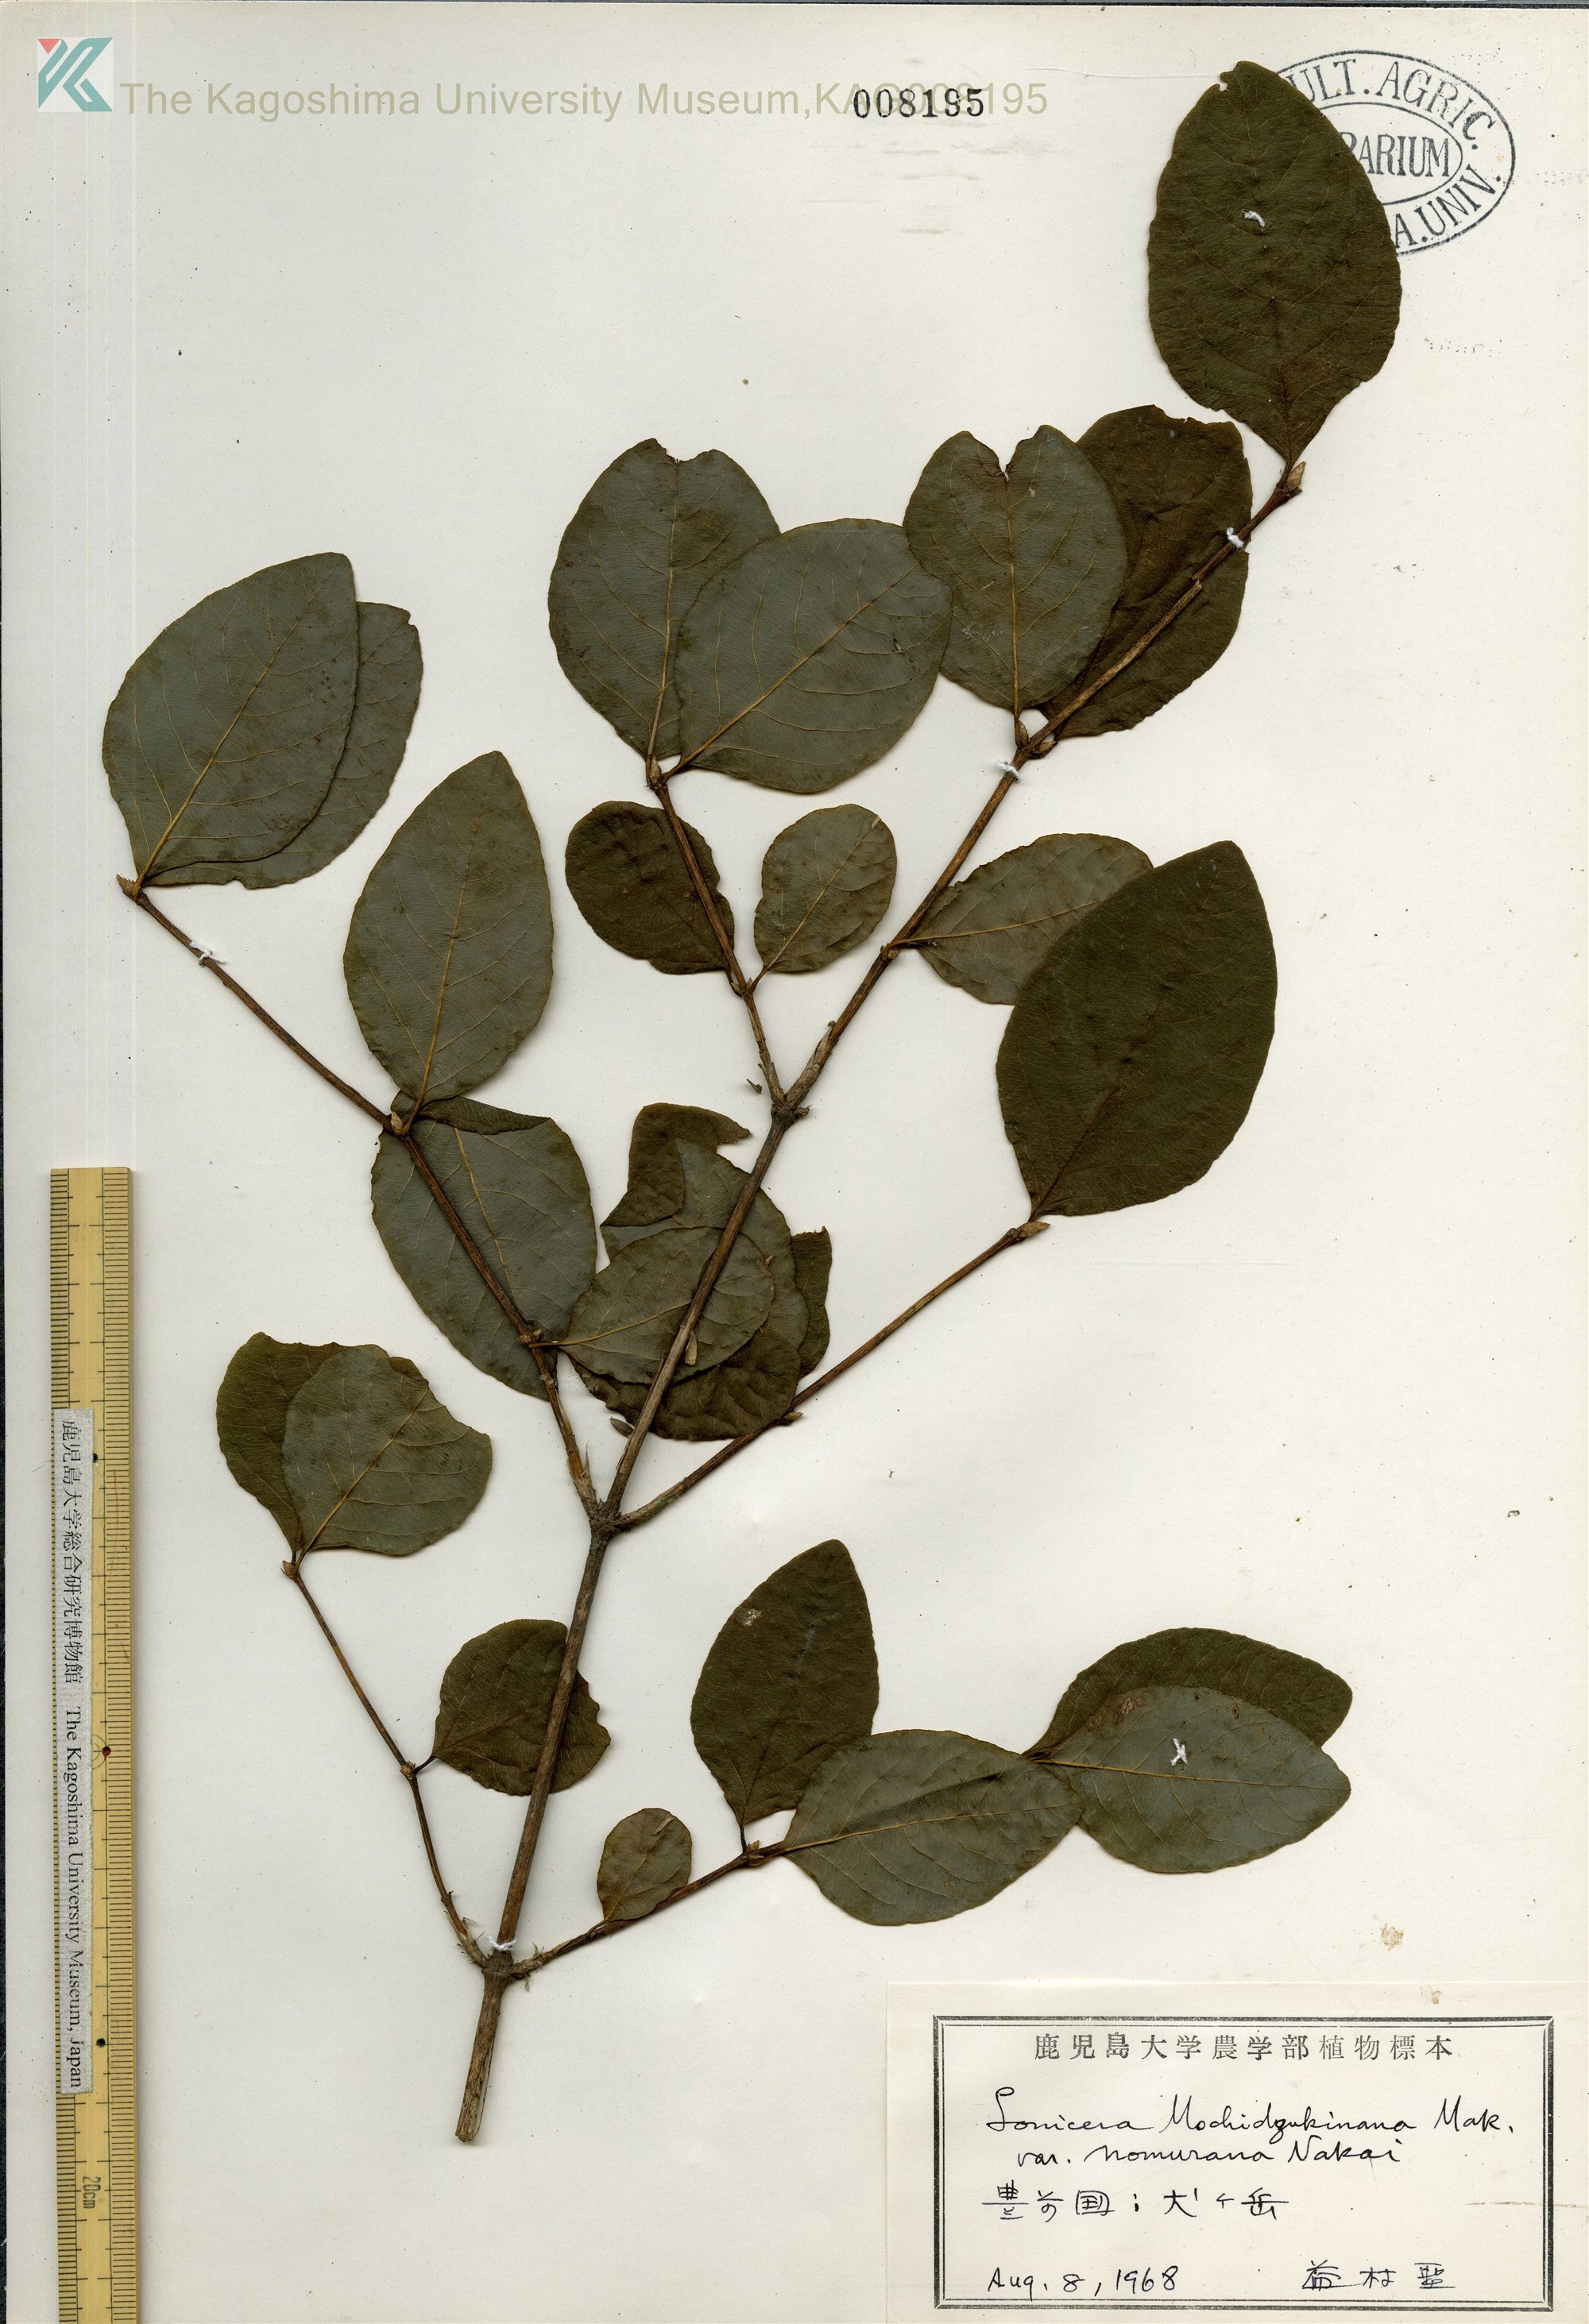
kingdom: Plantae
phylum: Tracheophyta
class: Magnoliopsida
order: Dipsacales
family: Caprifoliaceae
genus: Lonicera
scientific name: Lonicera subhispida
